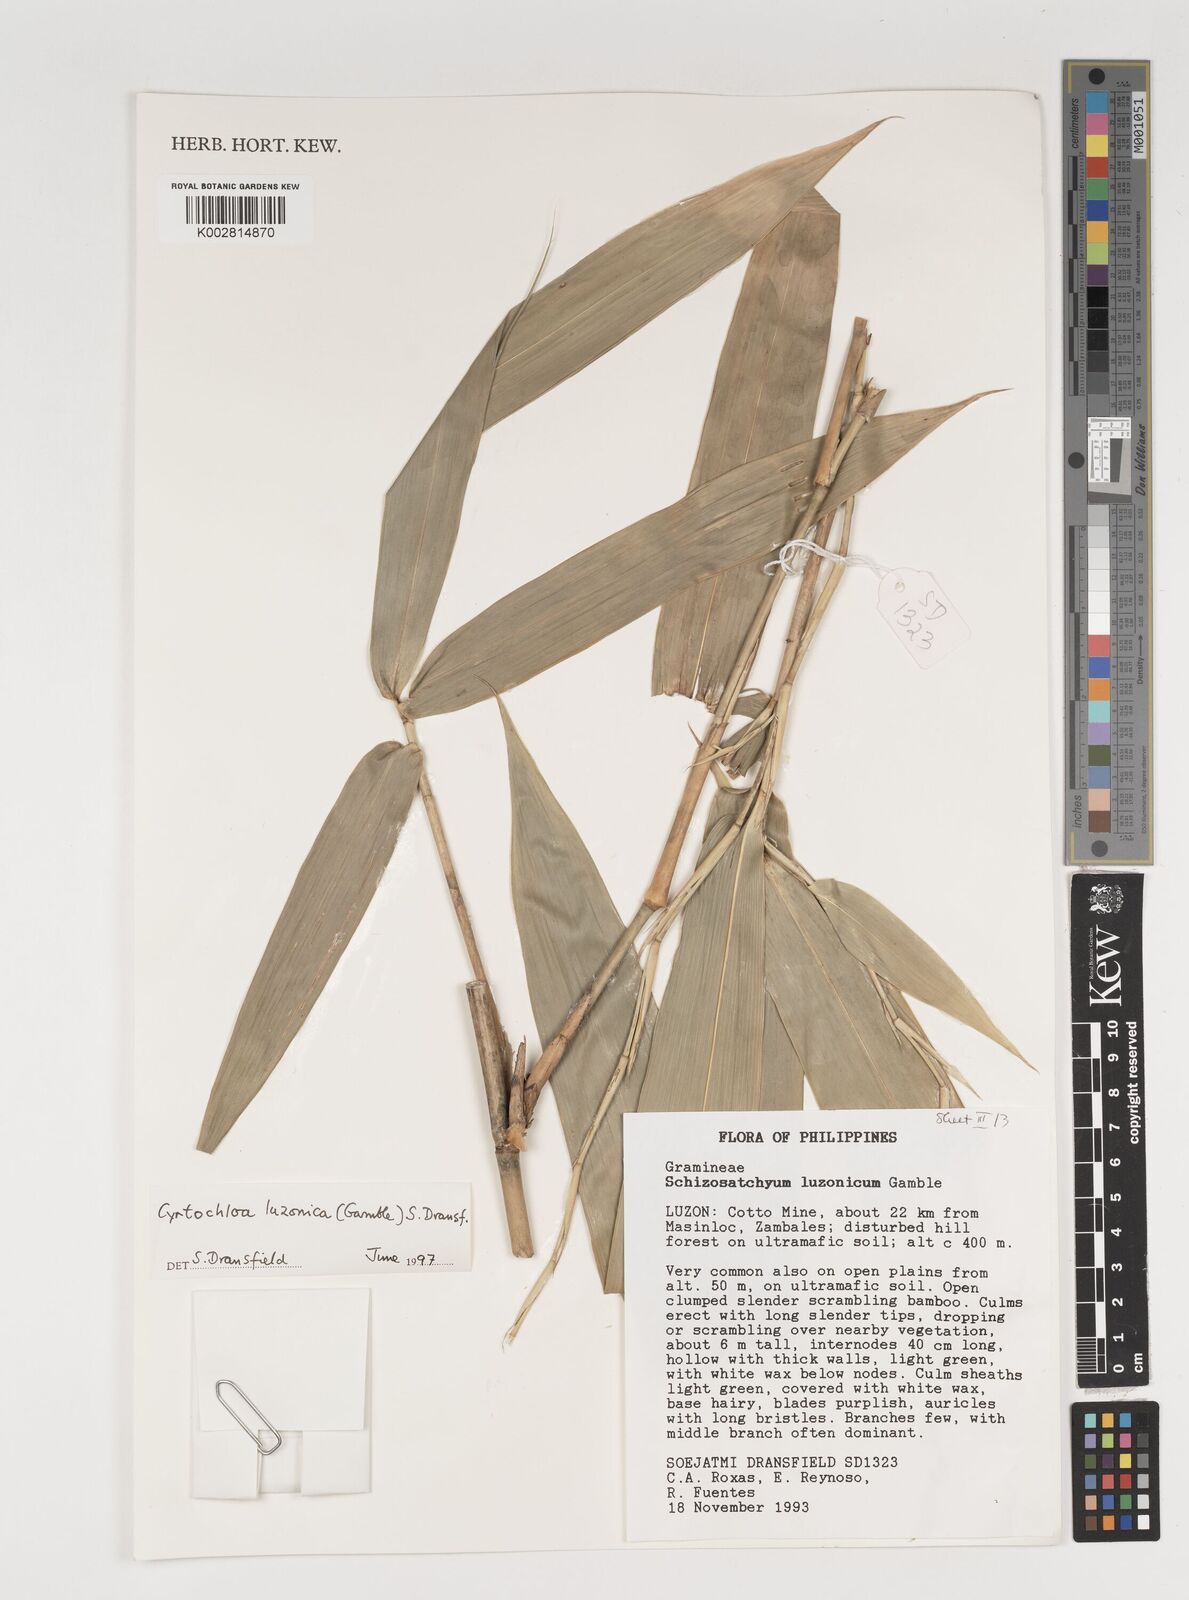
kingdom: Plantae
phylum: Tracheophyta
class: Liliopsida
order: Poales
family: Poaceae
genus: Cyrtochloa
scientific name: Cyrtochloa luzonica
